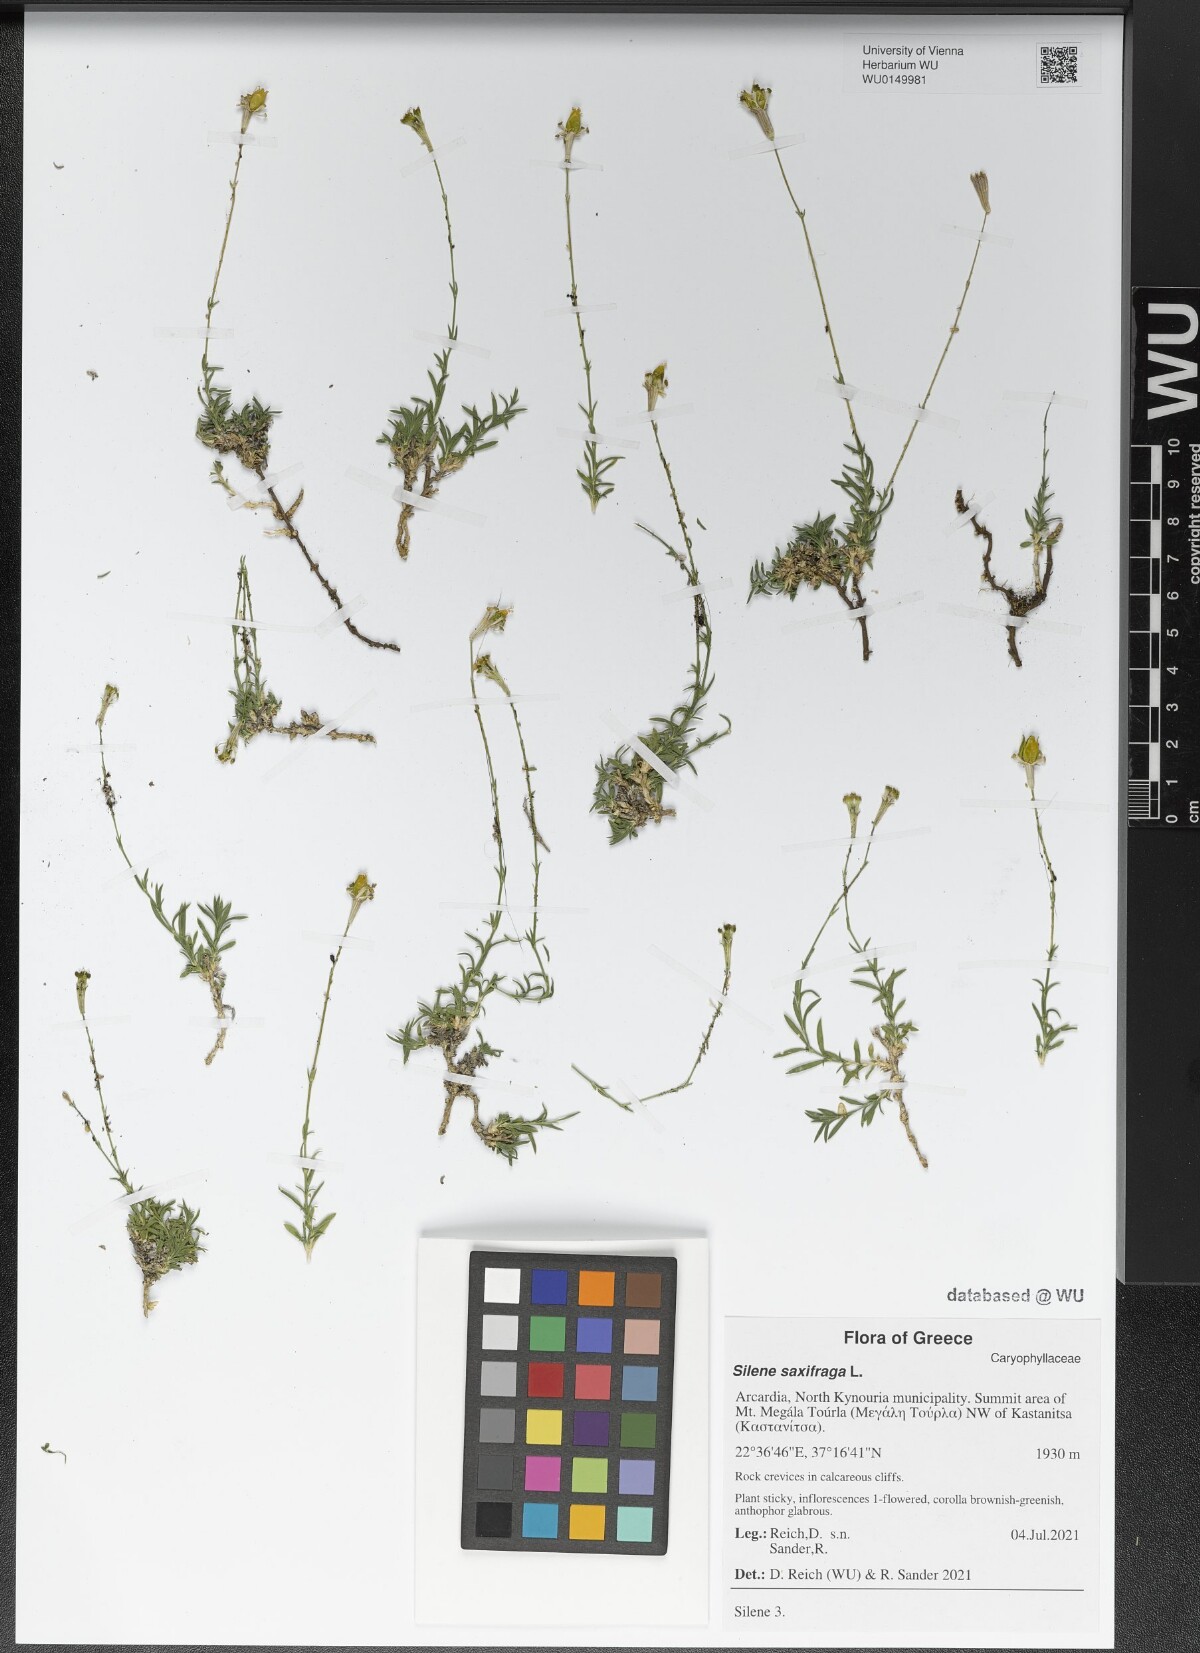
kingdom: Plantae
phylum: Tracheophyta
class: Magnoliopsida
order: Caryophyllales
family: Caryophyllaceae
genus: Silene
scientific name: Silene saxifraga
